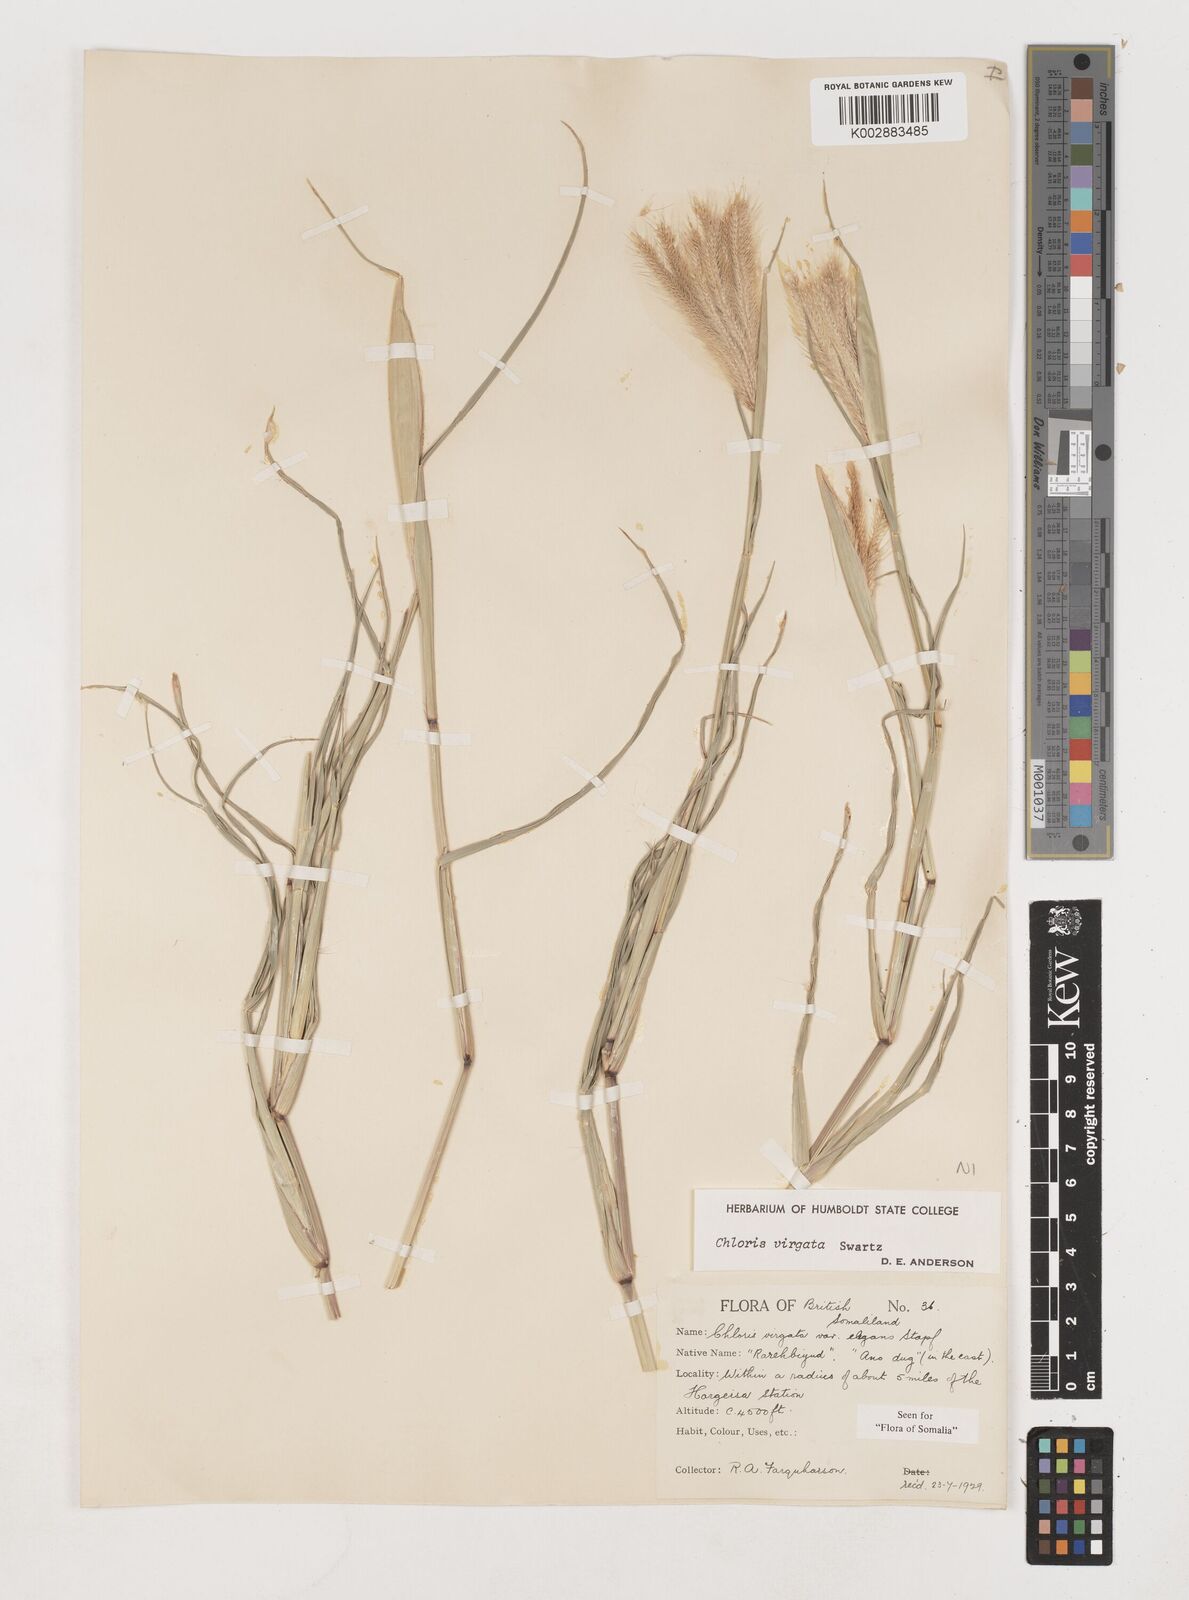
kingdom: Plantae
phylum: Tracheophyta
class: Liliopsida
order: Poales
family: Poaceae
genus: Chloris
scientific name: Chloris virgata
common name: Feathery rhodes-grass
